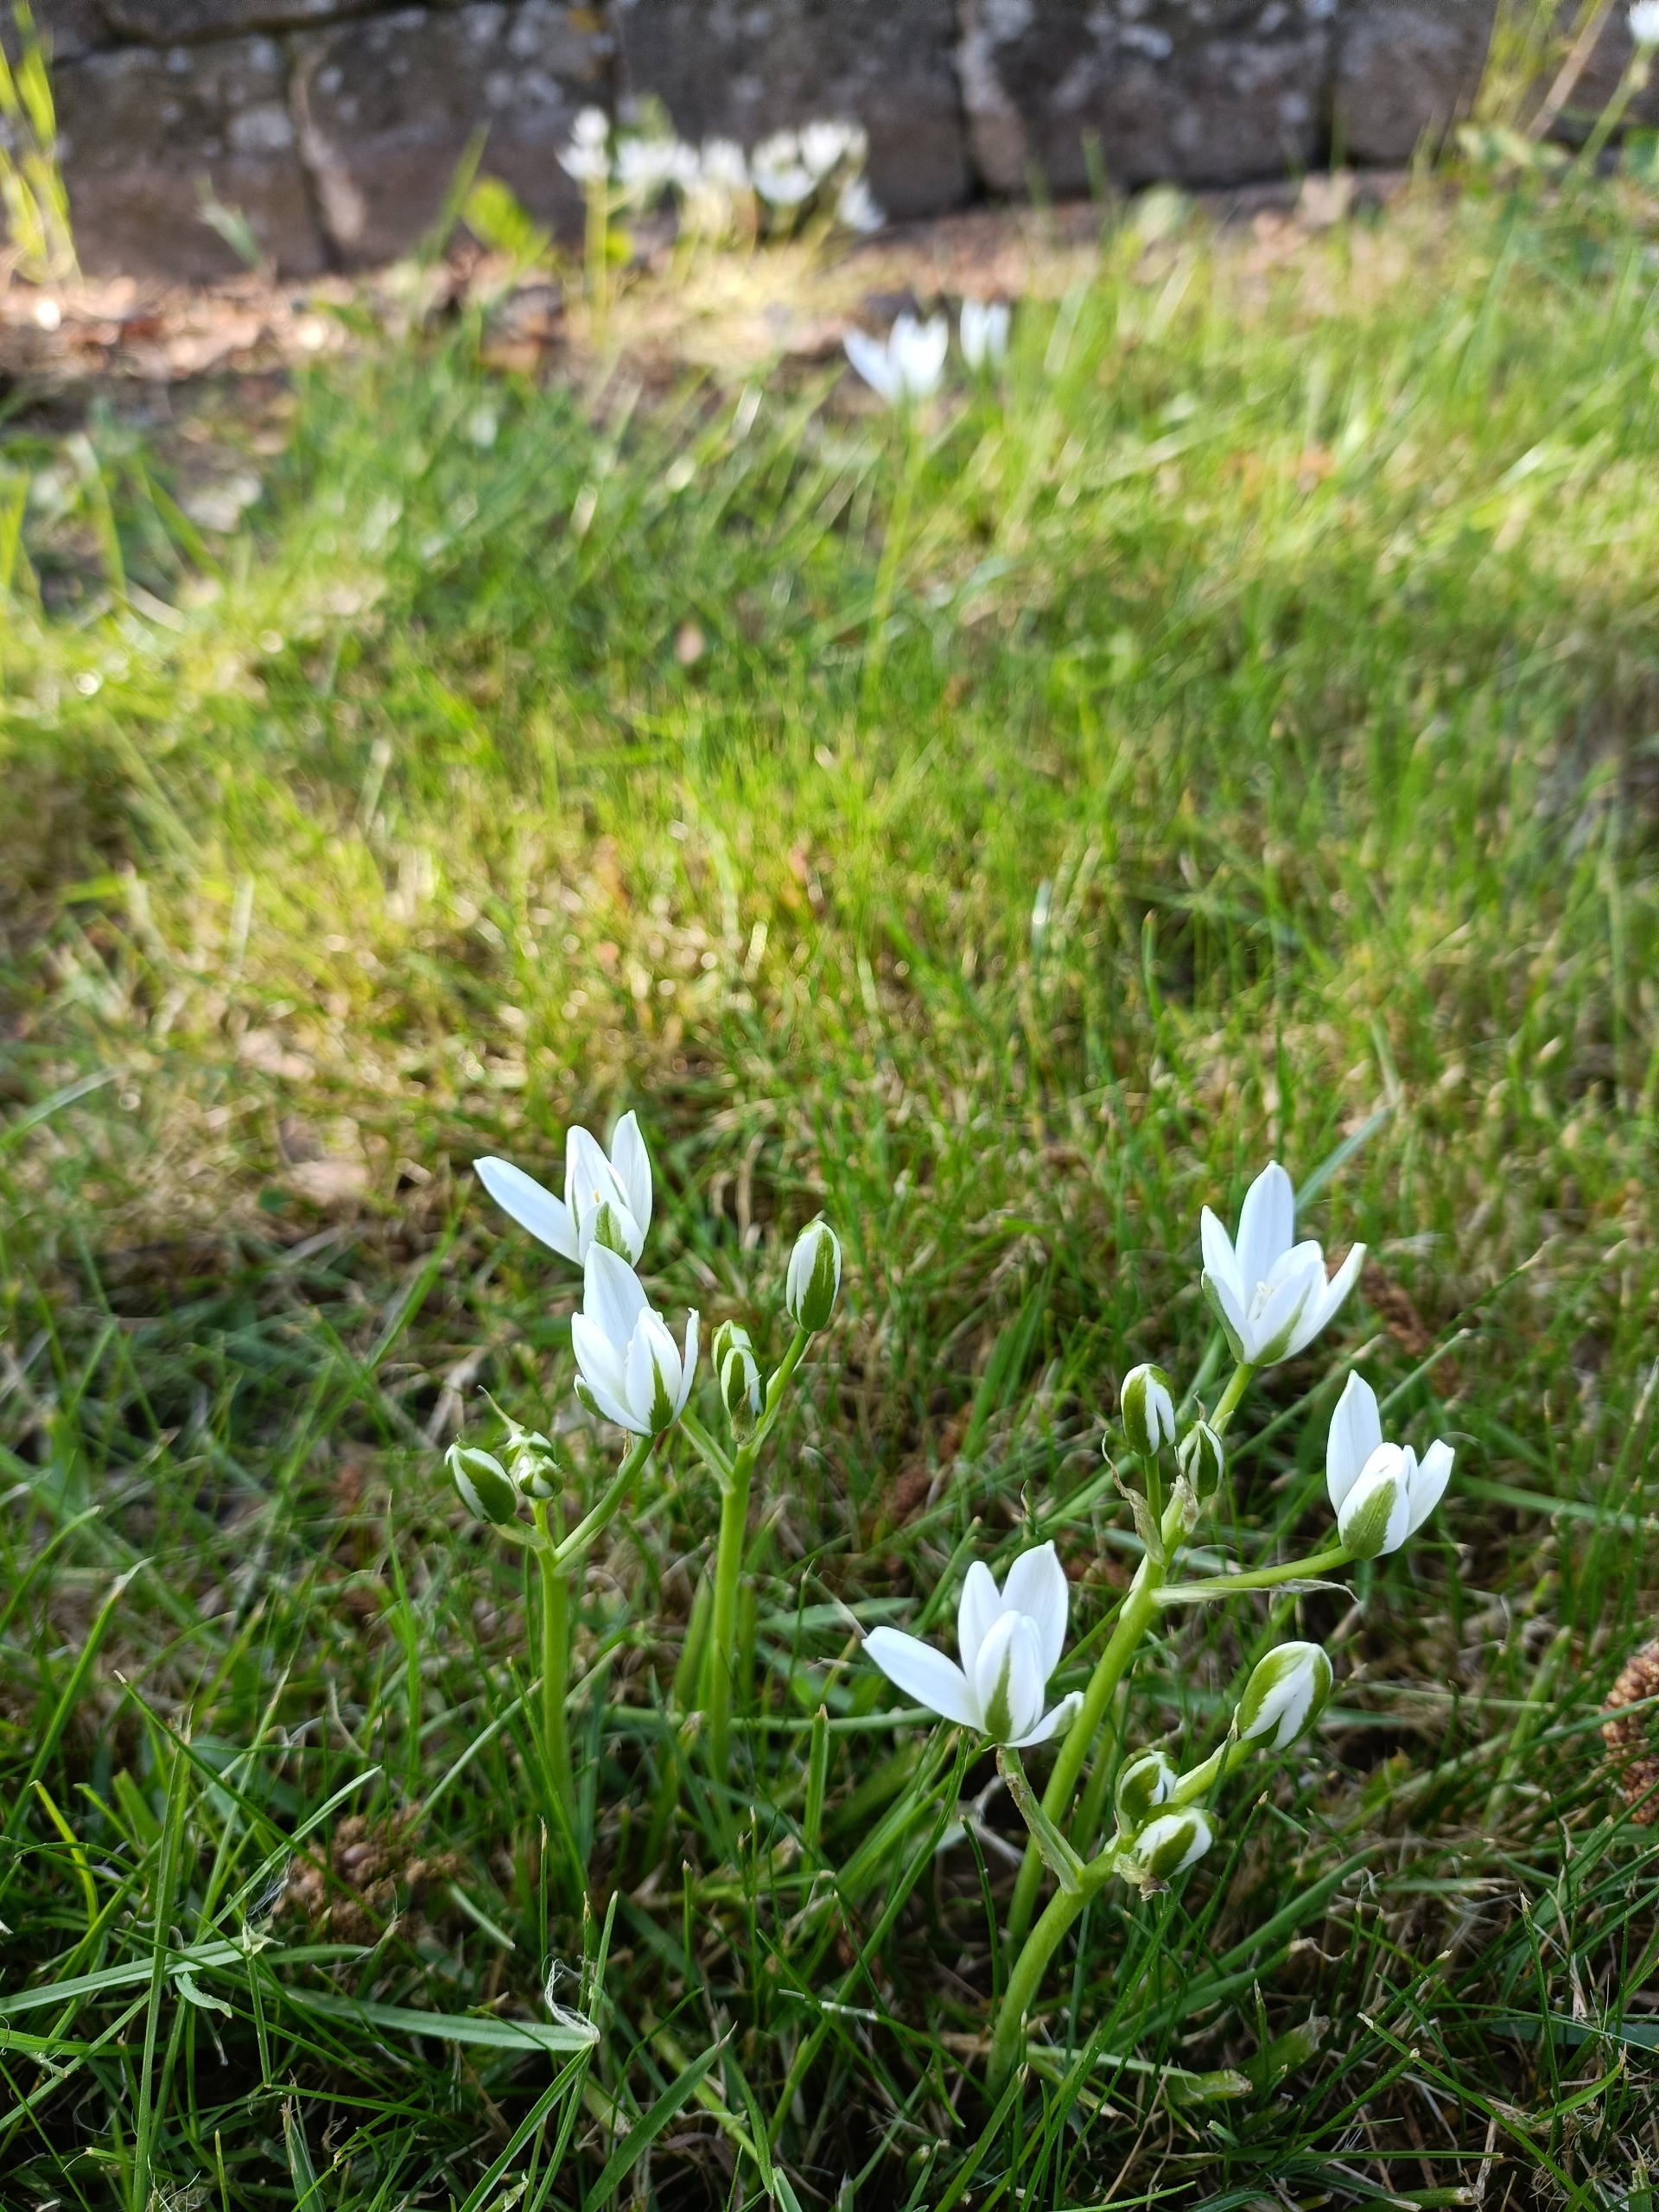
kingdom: Plantae
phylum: Tracheophyta
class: Liliopsida
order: Asparagales
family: Asparagaceae
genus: Ornithogalum
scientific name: Ornithogalum umbellatum
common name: Kost-fuglemælk
